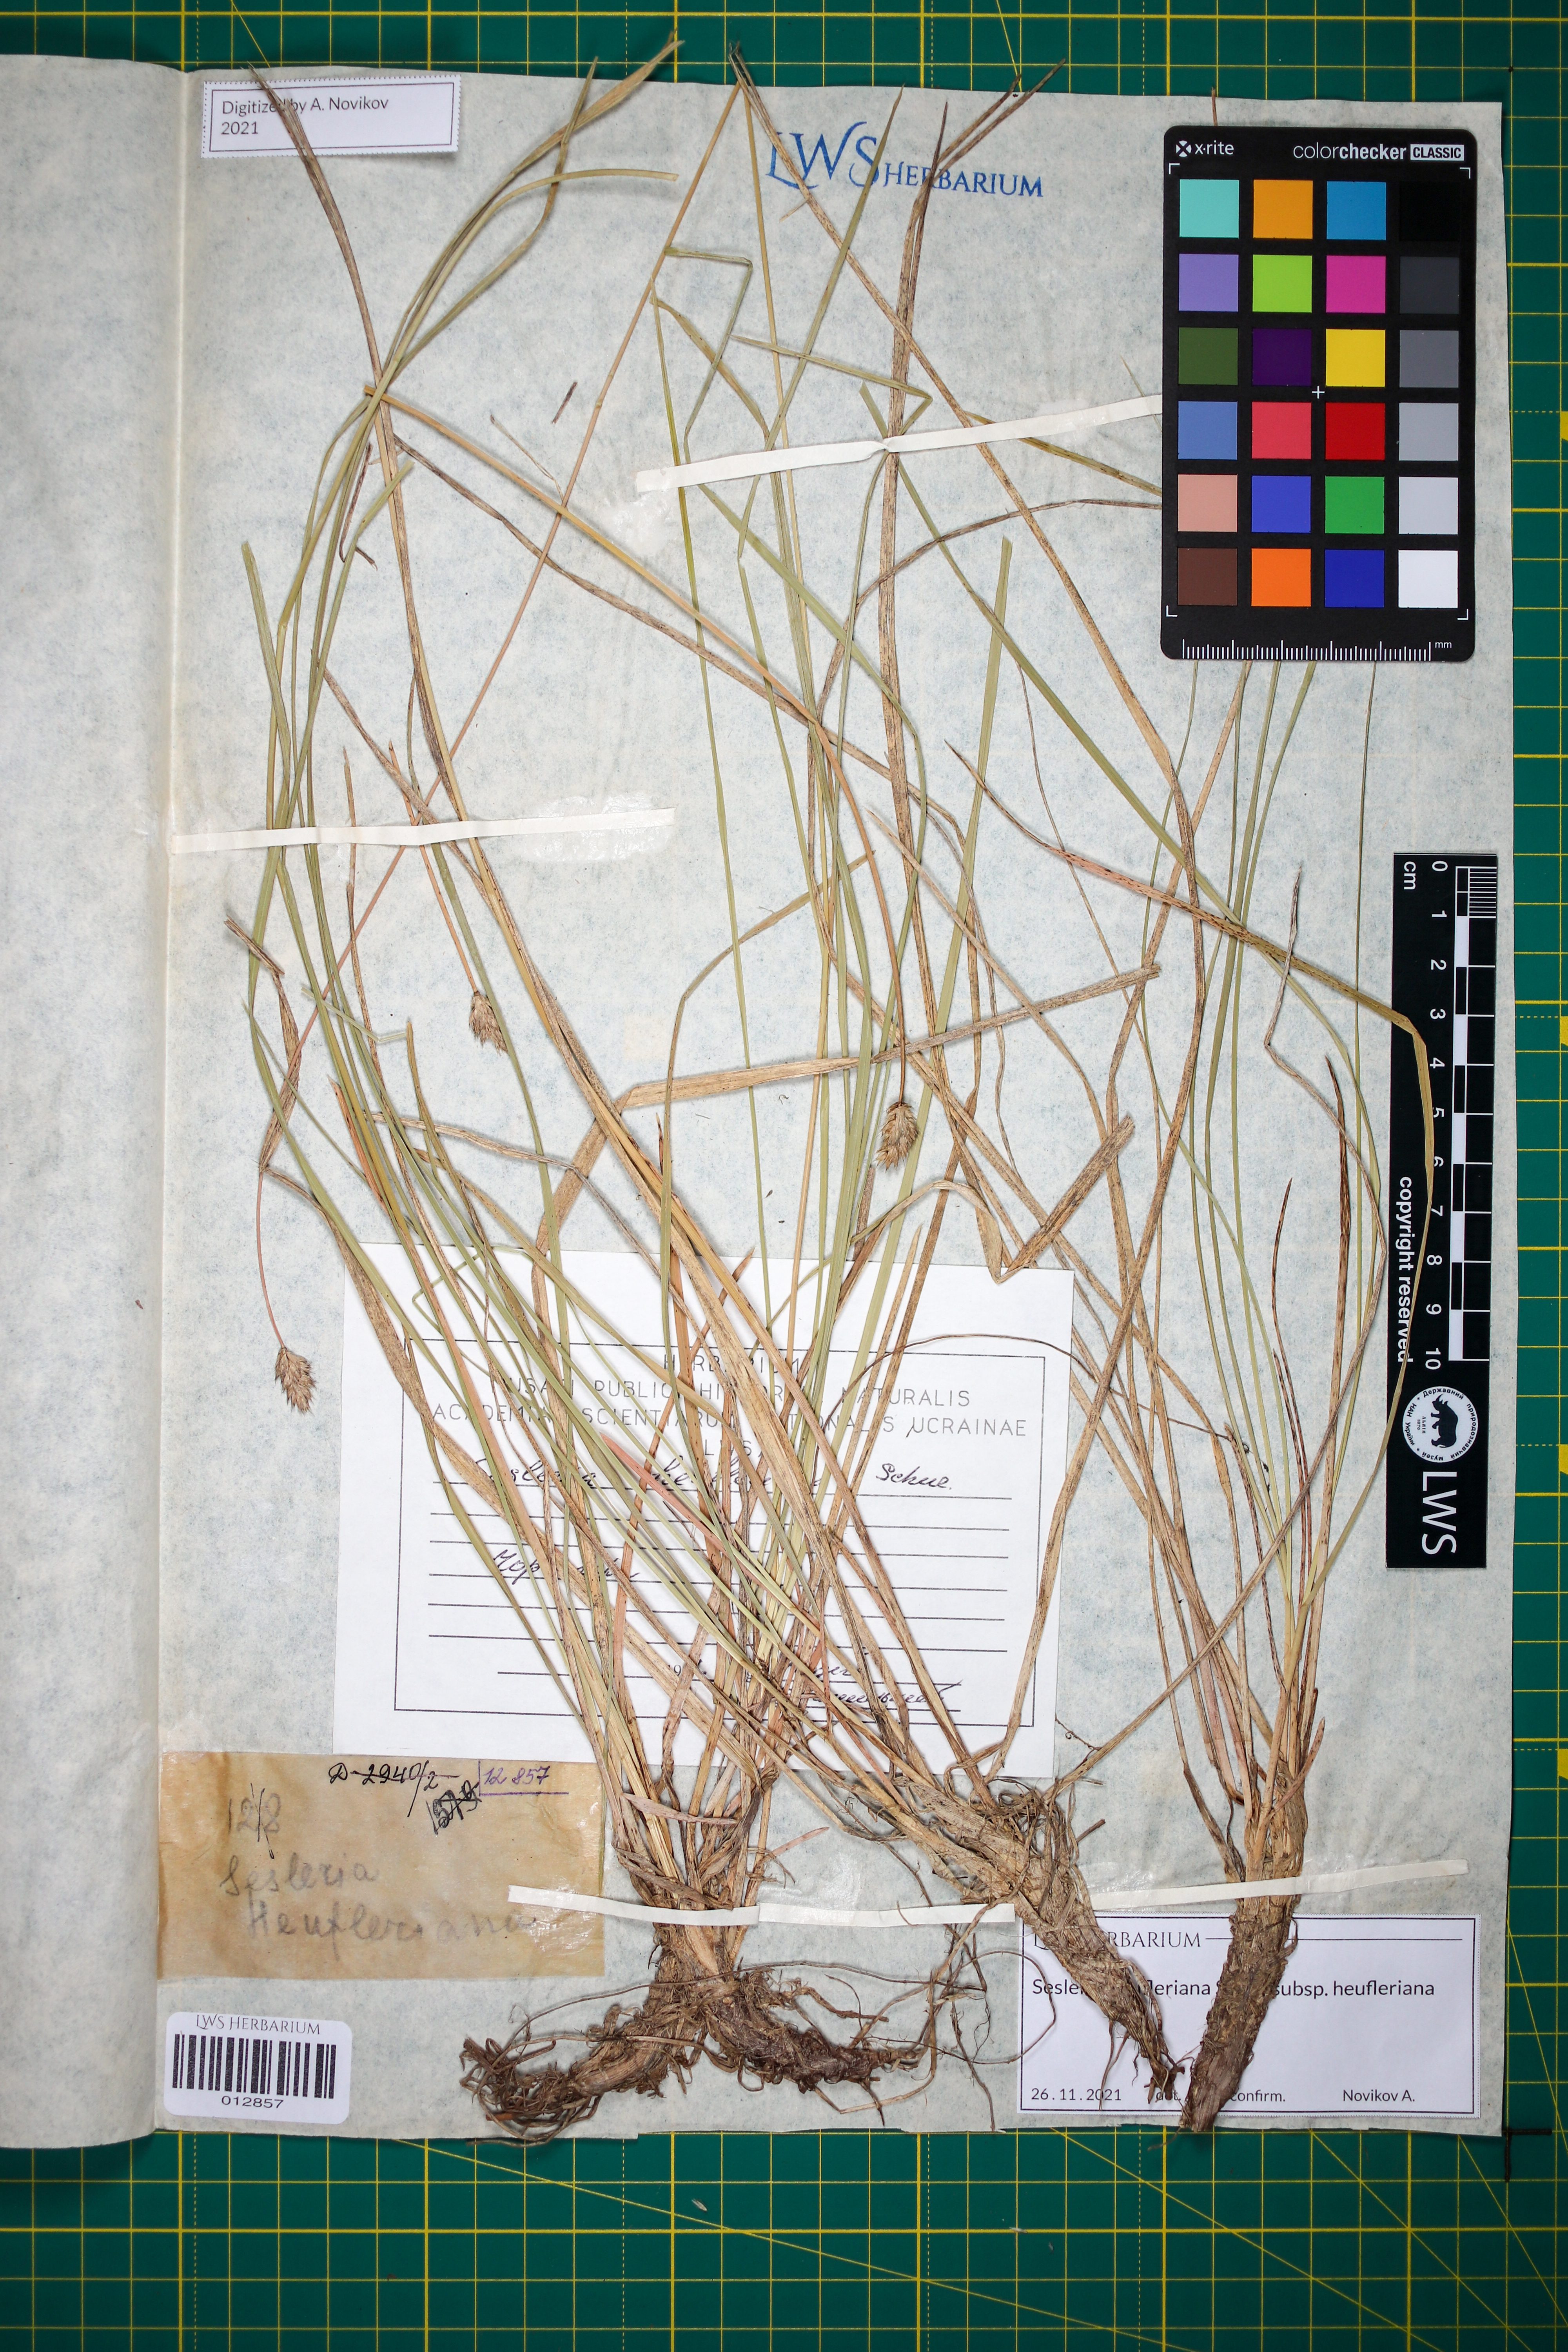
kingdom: Plantae
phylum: Tracheophyta
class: Liliopsida
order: Poales
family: Poaceae
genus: Sesleria
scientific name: Sesleria heufleriana
